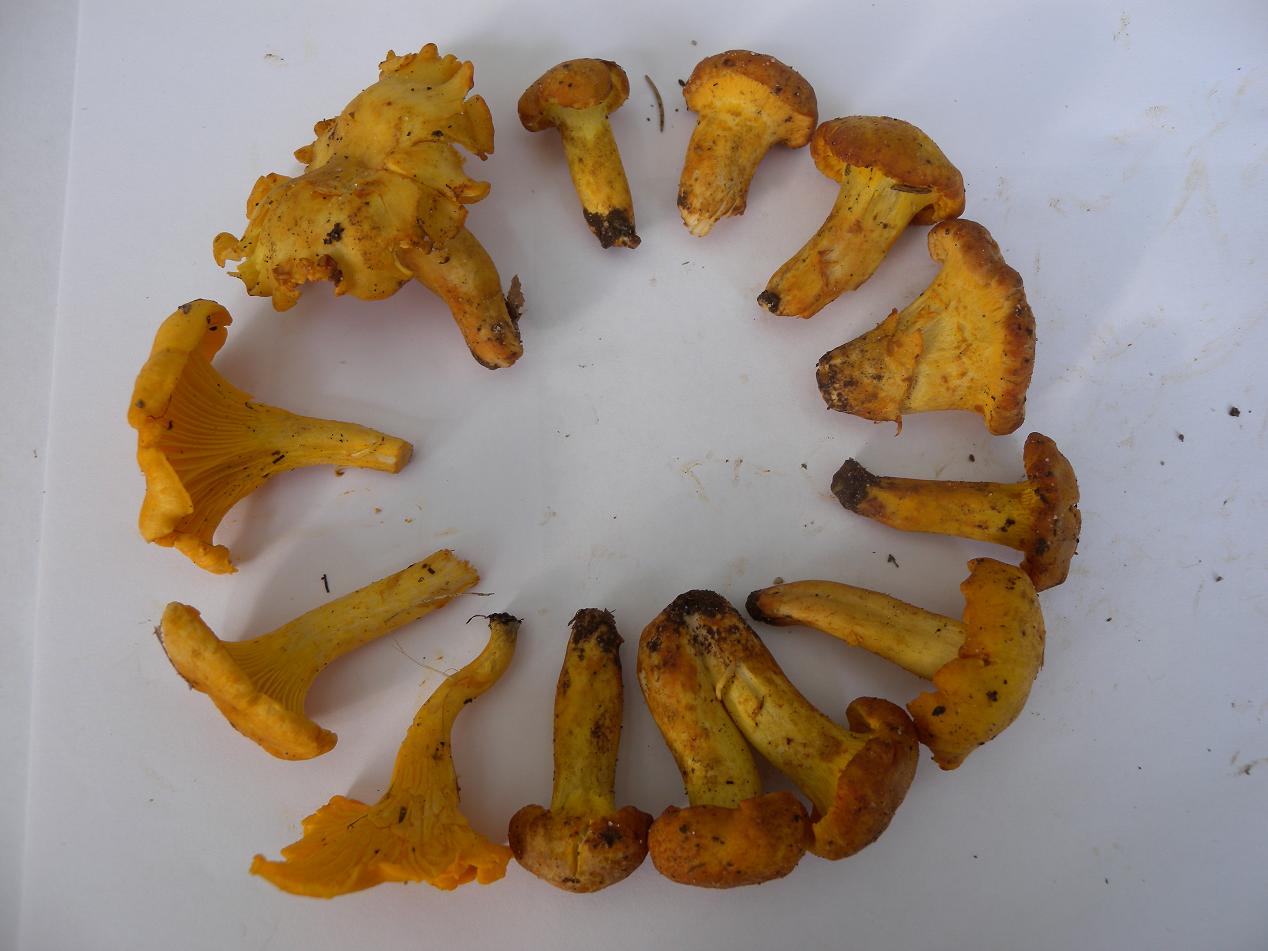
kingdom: Fungi
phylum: Basidiomycota
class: Agaricomycetes
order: Cantharellales
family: Hydnaceae
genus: Cantharellus
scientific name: Cantharellus
